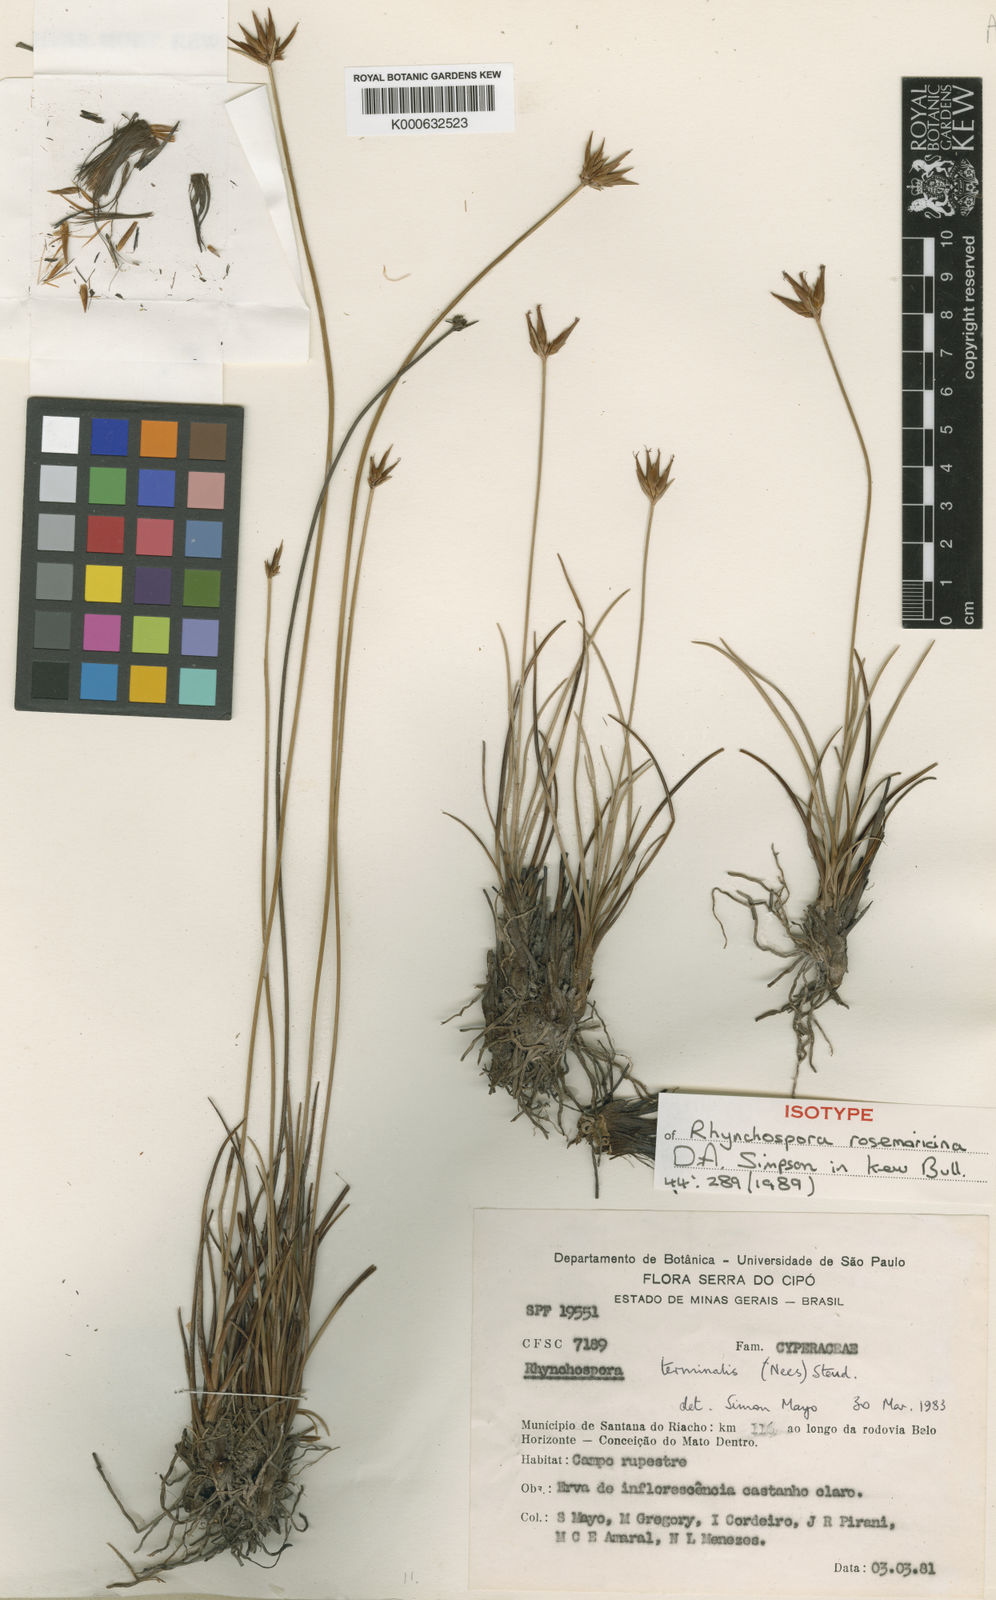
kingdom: Plantae
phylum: Tracheophyta
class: Liliopsida
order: Poales
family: Cyperaceae
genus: Rhynchospora
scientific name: Rhynchospora rosemariana
